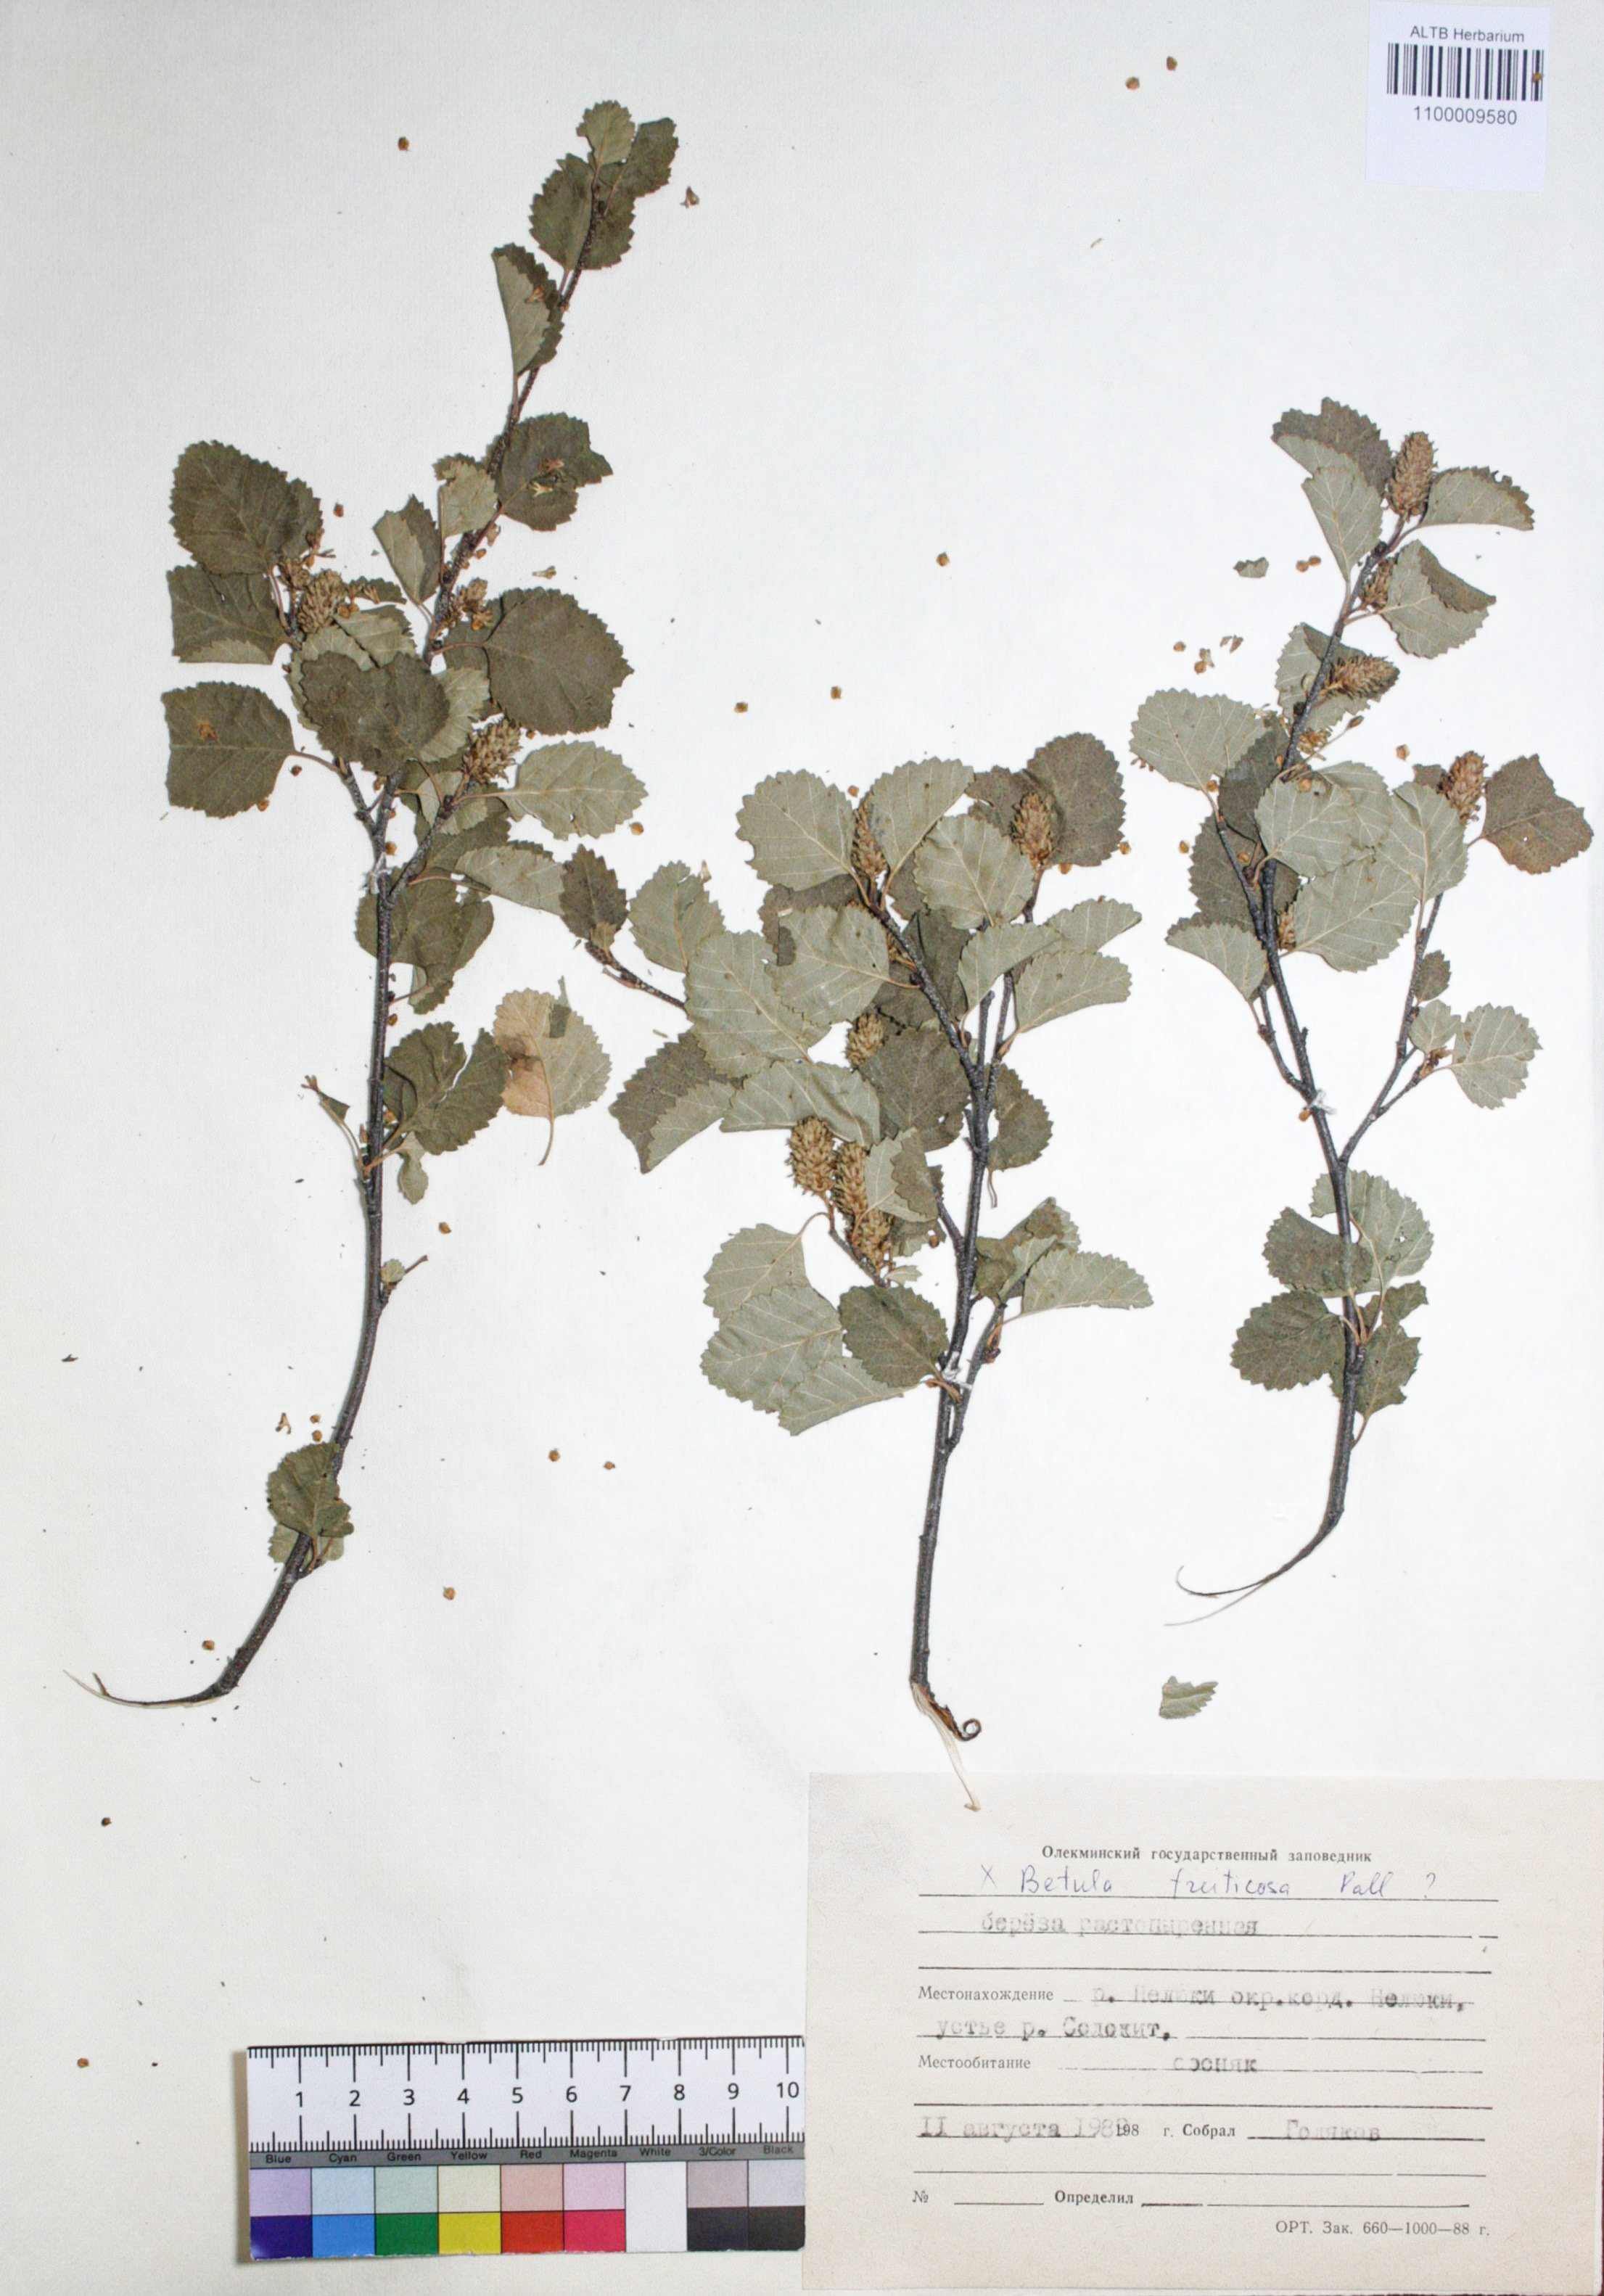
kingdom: Plantae
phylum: Tracheophyta
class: Magnoliopsida
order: Fagales
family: Betulaceae
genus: Betula
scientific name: Betula fruticosa
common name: Japanese bog birch
